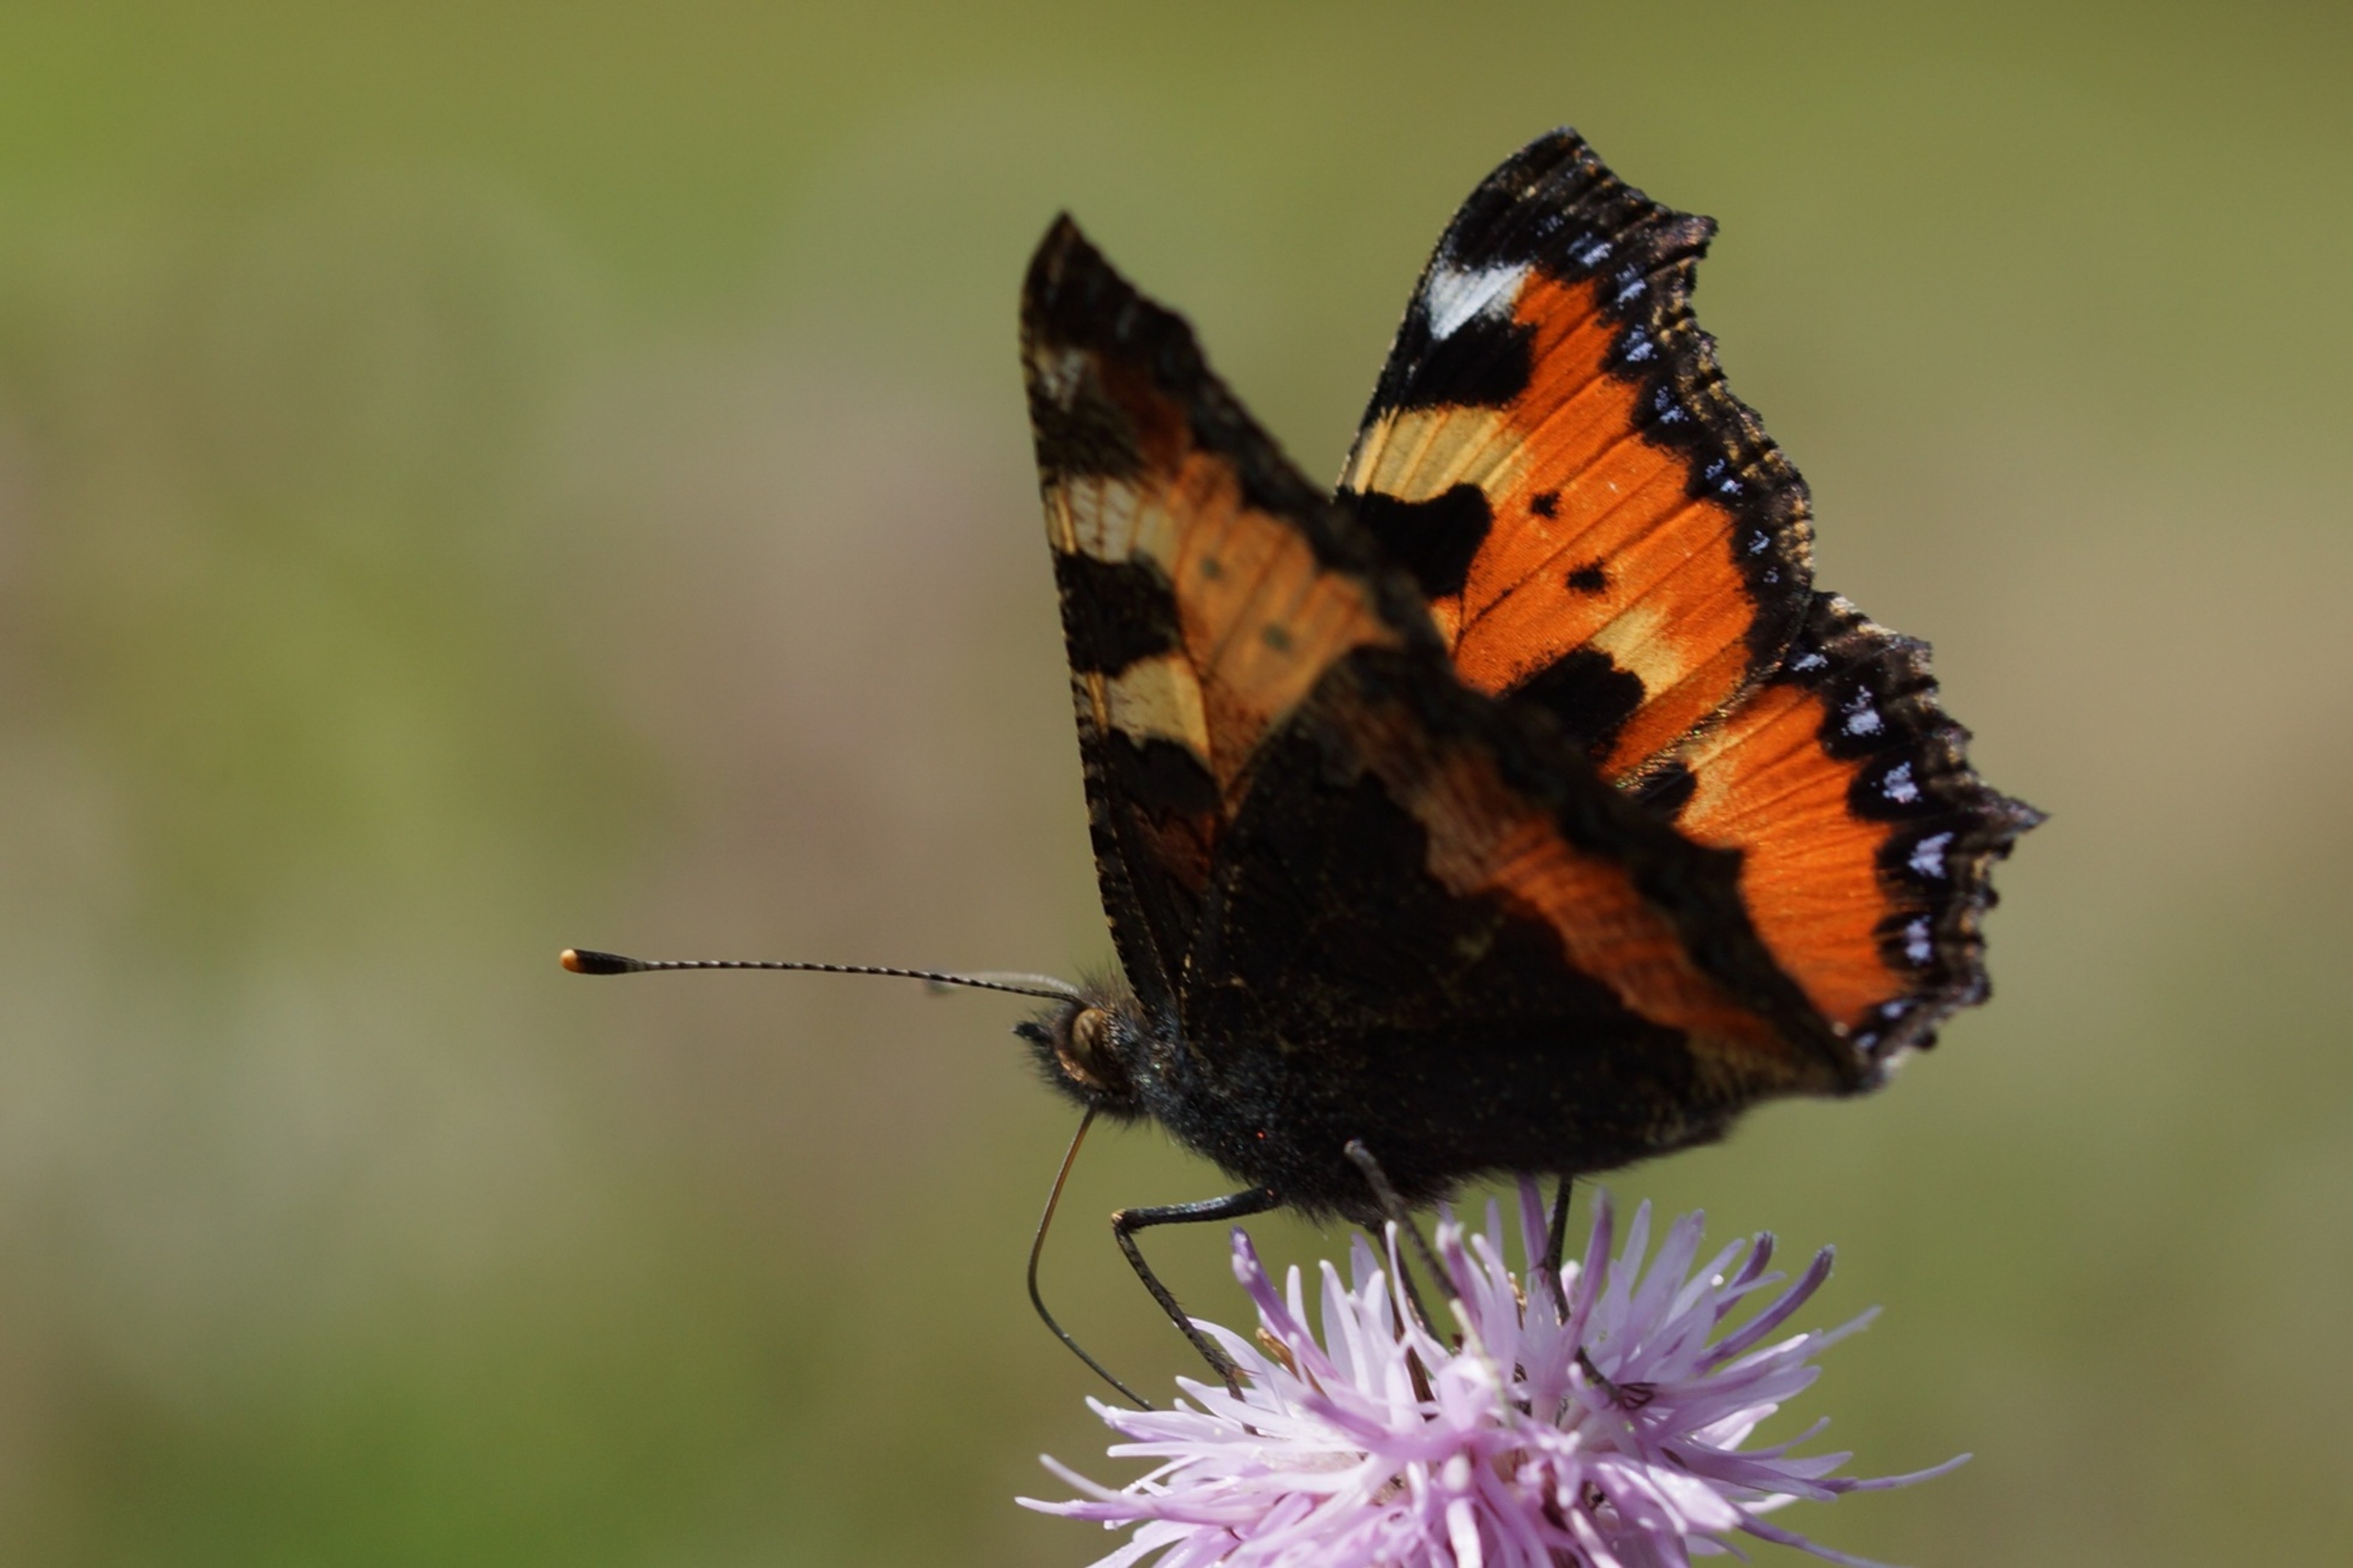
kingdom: Animalia
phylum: Arthropoda
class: Insecta
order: Lepidoptera
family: Nymphalidae
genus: Aglais
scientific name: Aglais urticae
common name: Nældens takvinge
